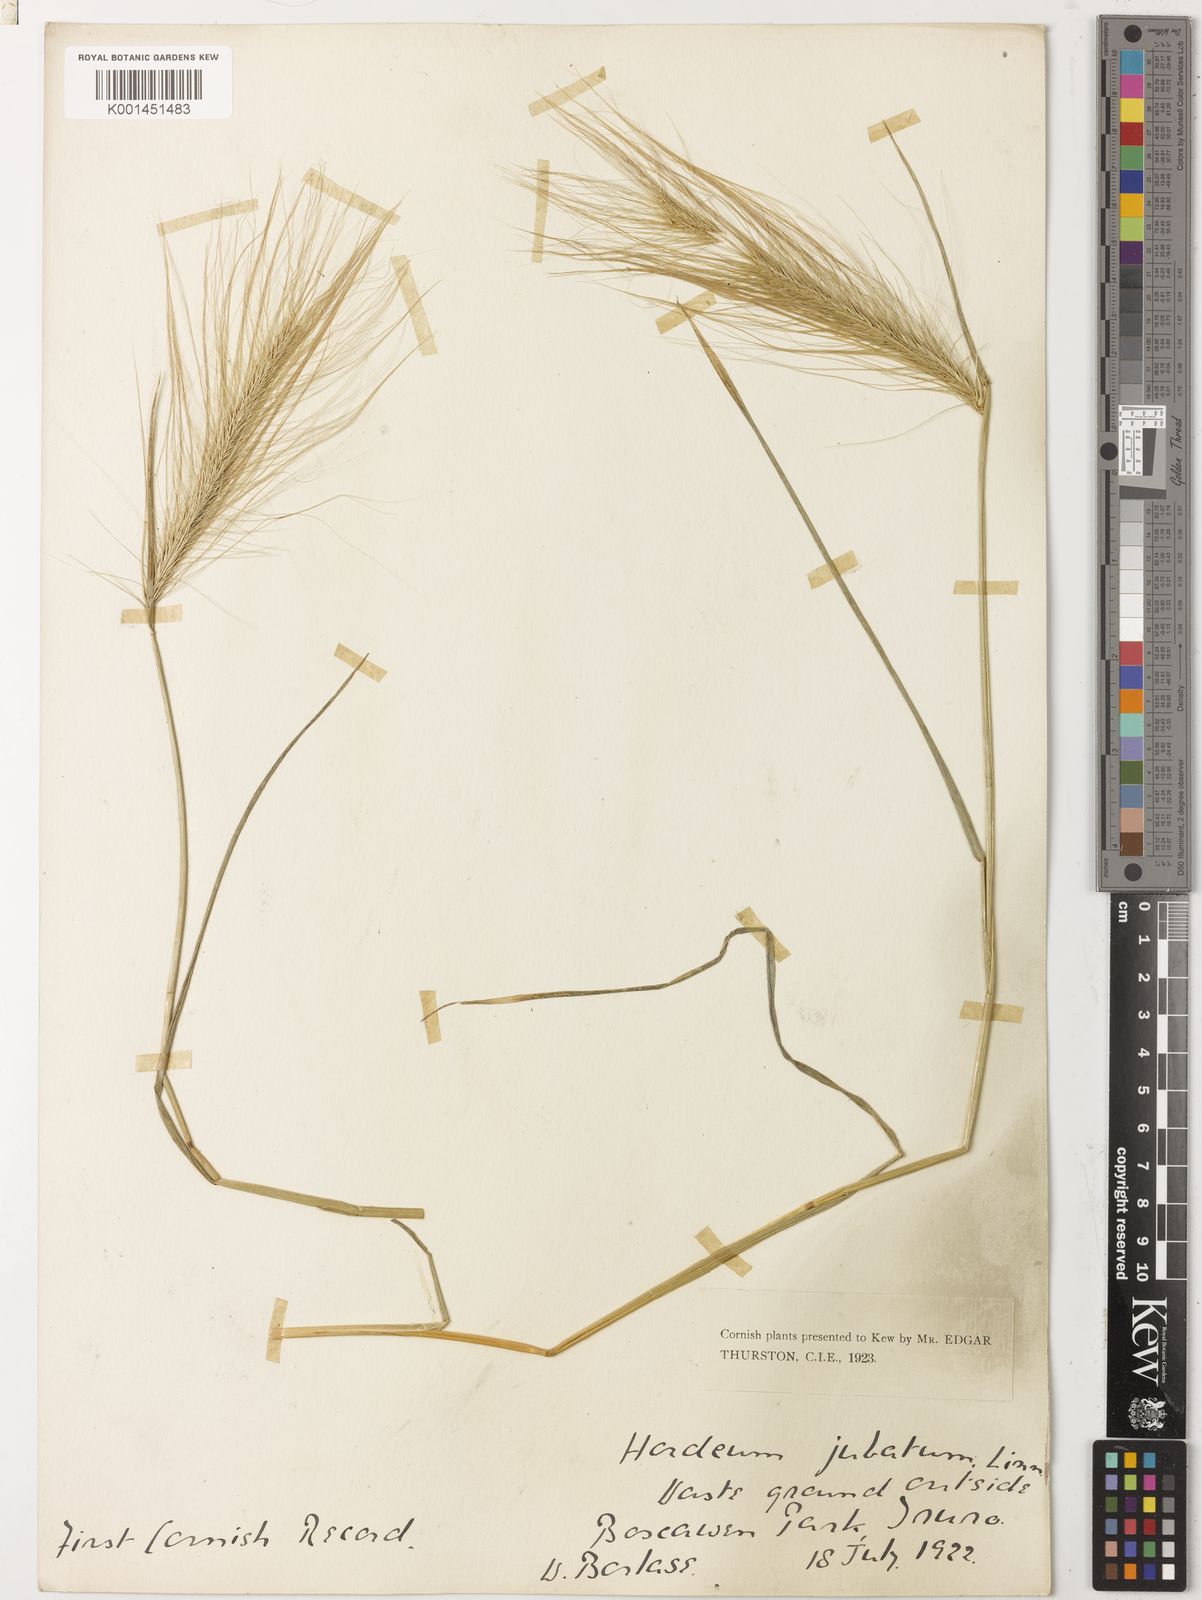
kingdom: Plantae
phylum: Tracheophyta
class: Liliopsida
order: Poales
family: Poaceae
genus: Hordeum
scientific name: Hordeum jubatum
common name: Foxtail barley
